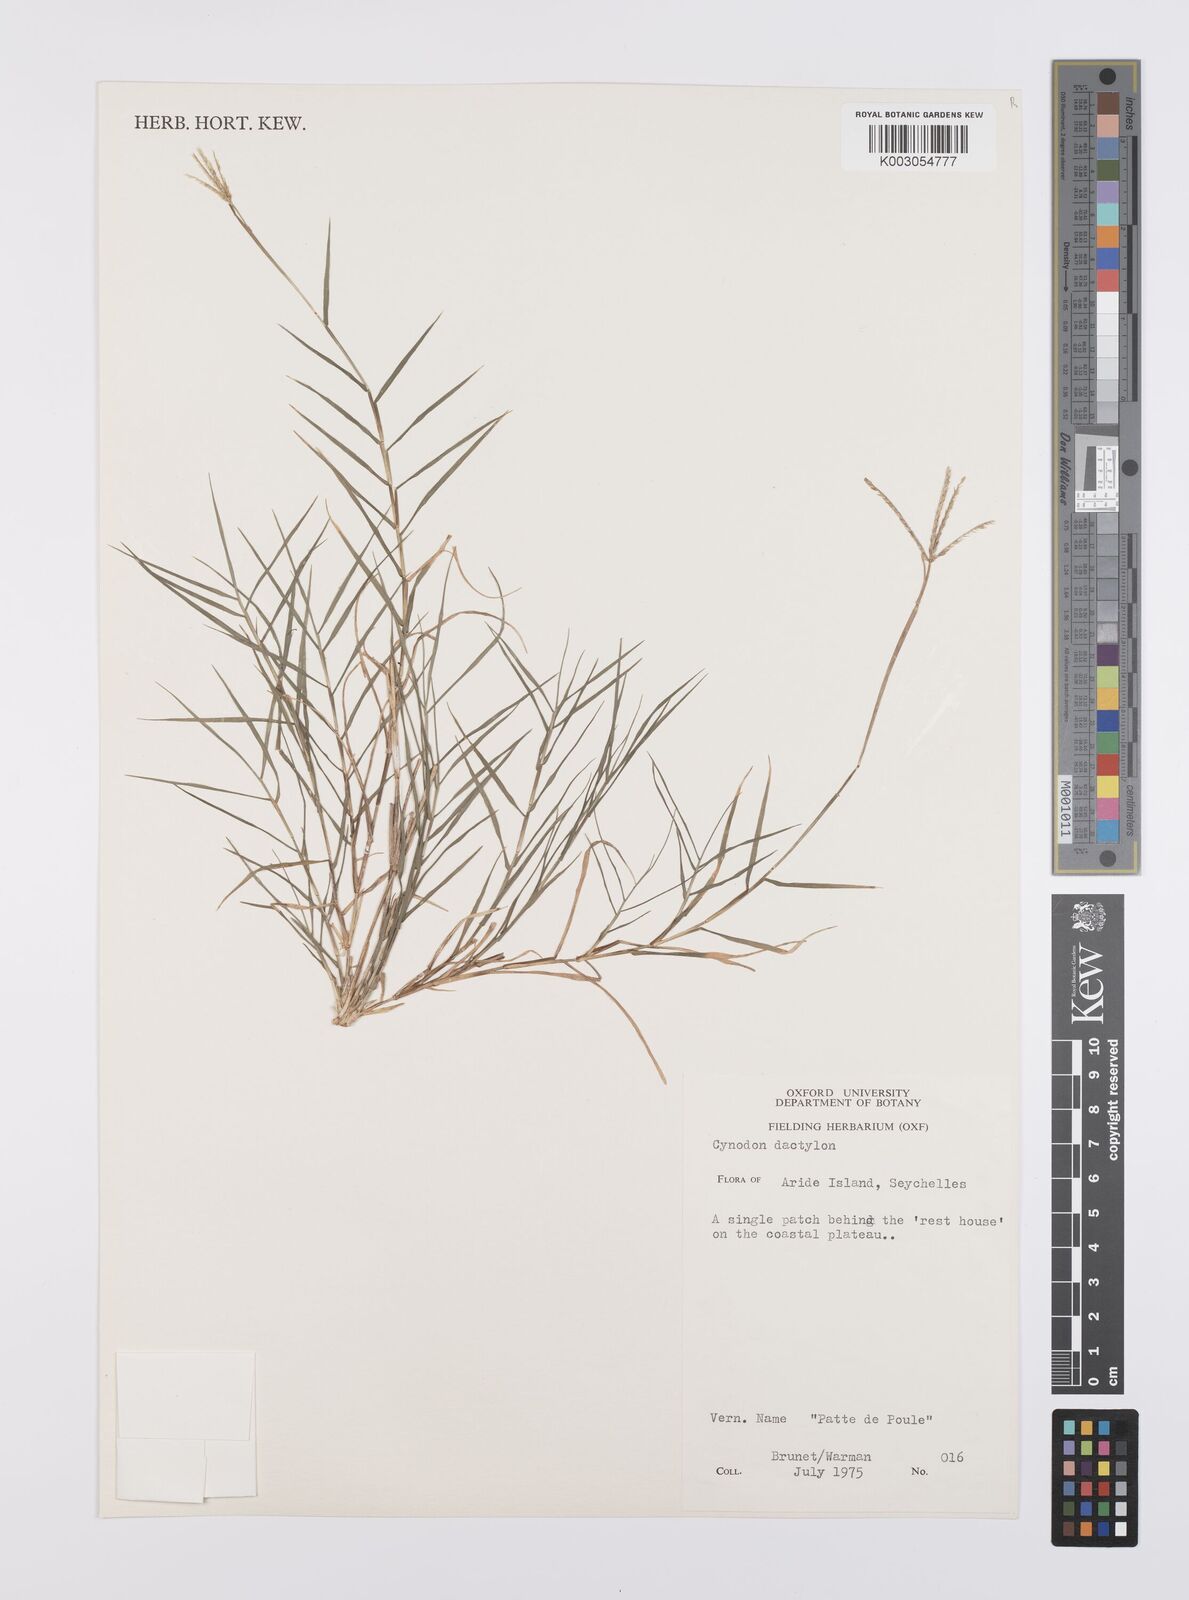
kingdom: Plantae
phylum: Tracheophyta
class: Liliopsida
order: Poales
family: Poaceae
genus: Cynodon
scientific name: Cynodon dactylon
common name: Bermuda grass
